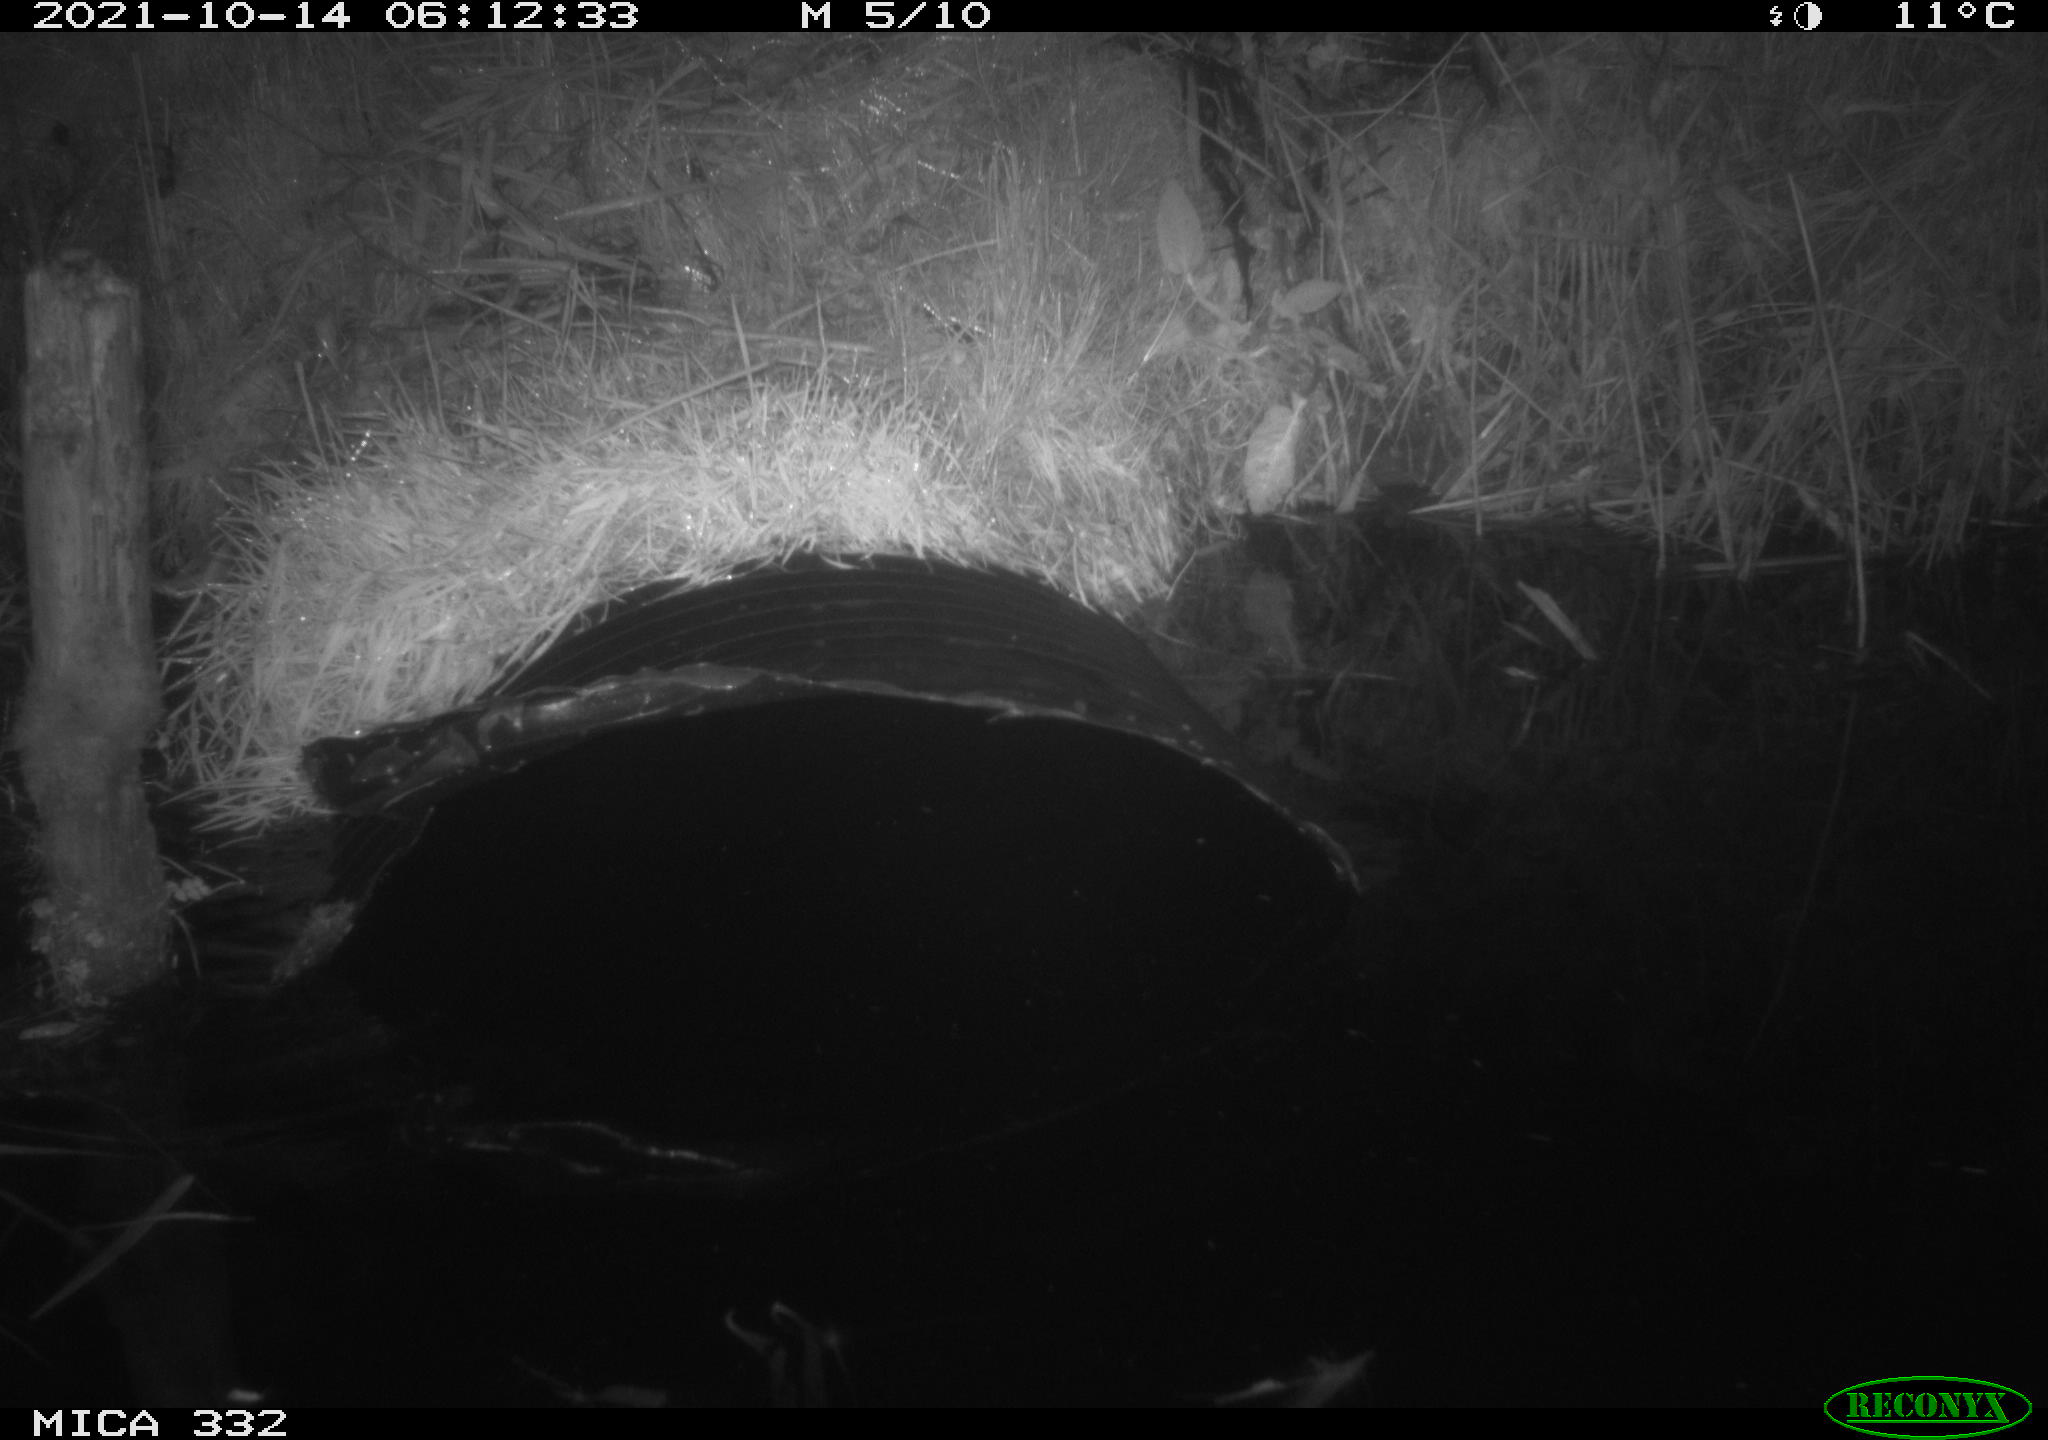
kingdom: Animalia
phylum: Chordata
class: Mammalia
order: Carnivora
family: Mustelidae
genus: Lutra
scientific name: Lutra lutra
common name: European otter
